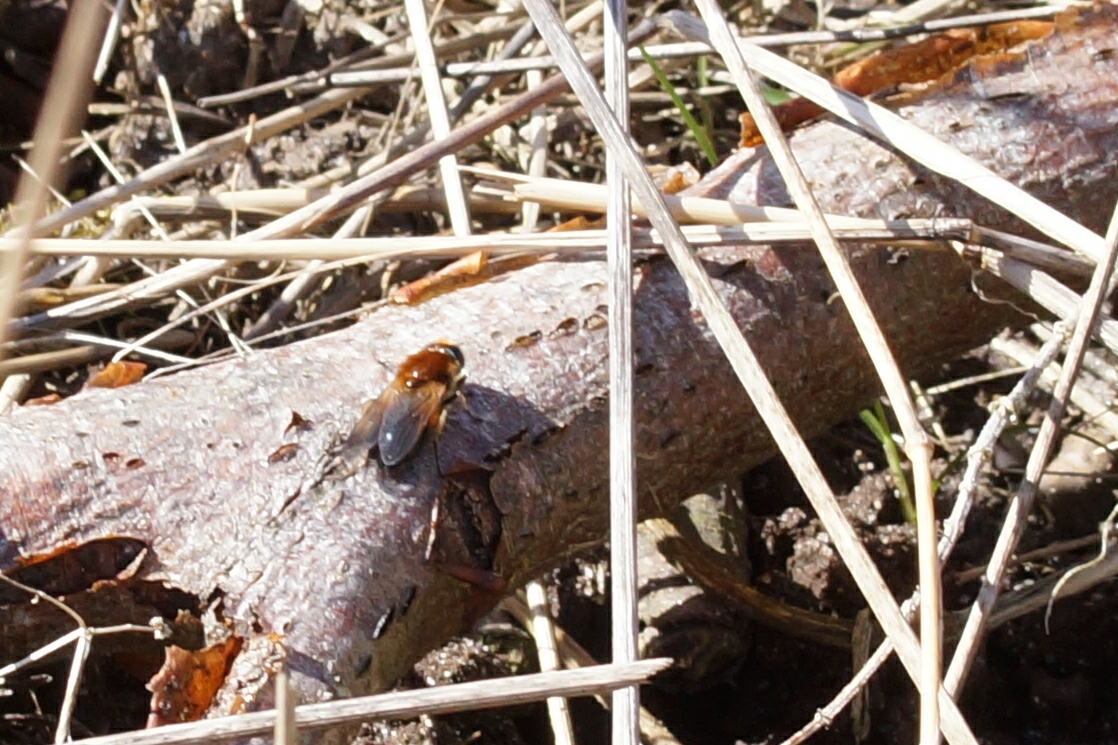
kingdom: Animalia
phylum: Arthropoda
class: Insecta
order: Diptera
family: Syrphidae
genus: Cheilosia
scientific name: Cheilosia corydon
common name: Ræverød urtesvirreflue
